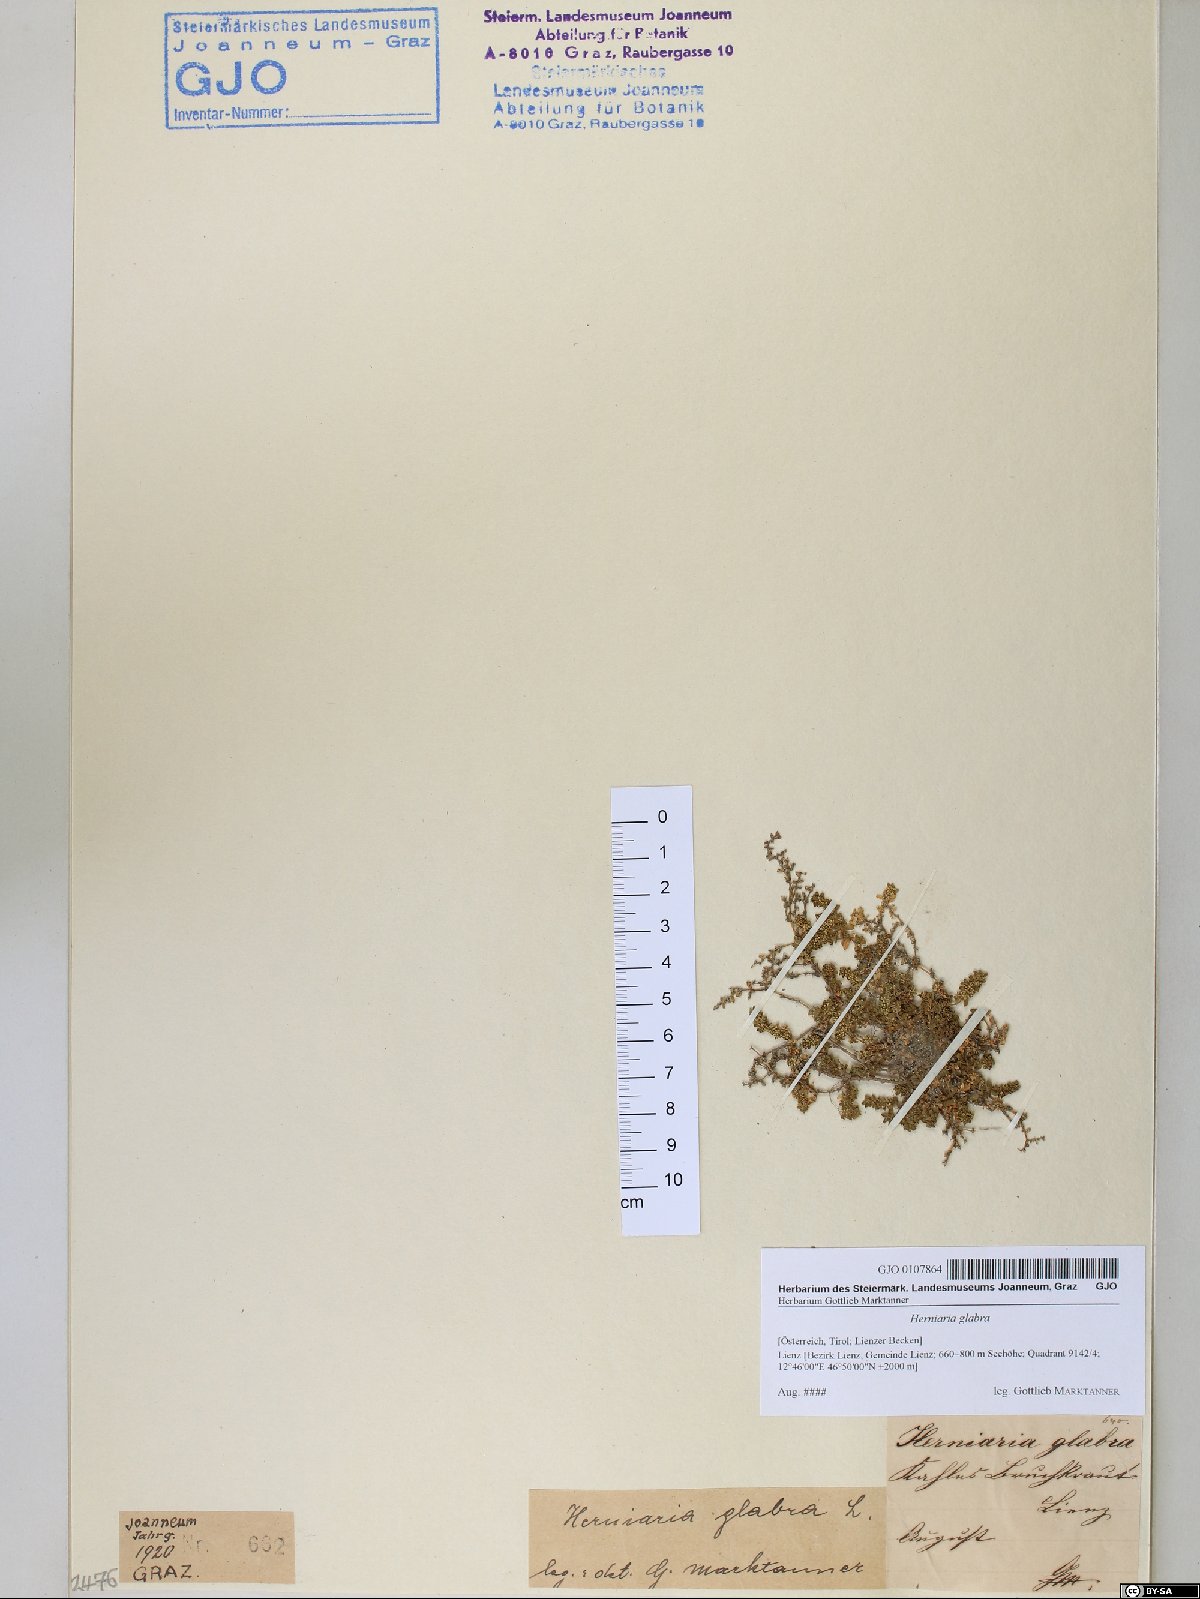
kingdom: Plantae
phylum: Tracheophyta
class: Magnoliopsida
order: Caryophyllales
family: Caryophyllaceae
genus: Herniaria
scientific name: Herniaria glabra
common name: Smooth rupturewort
